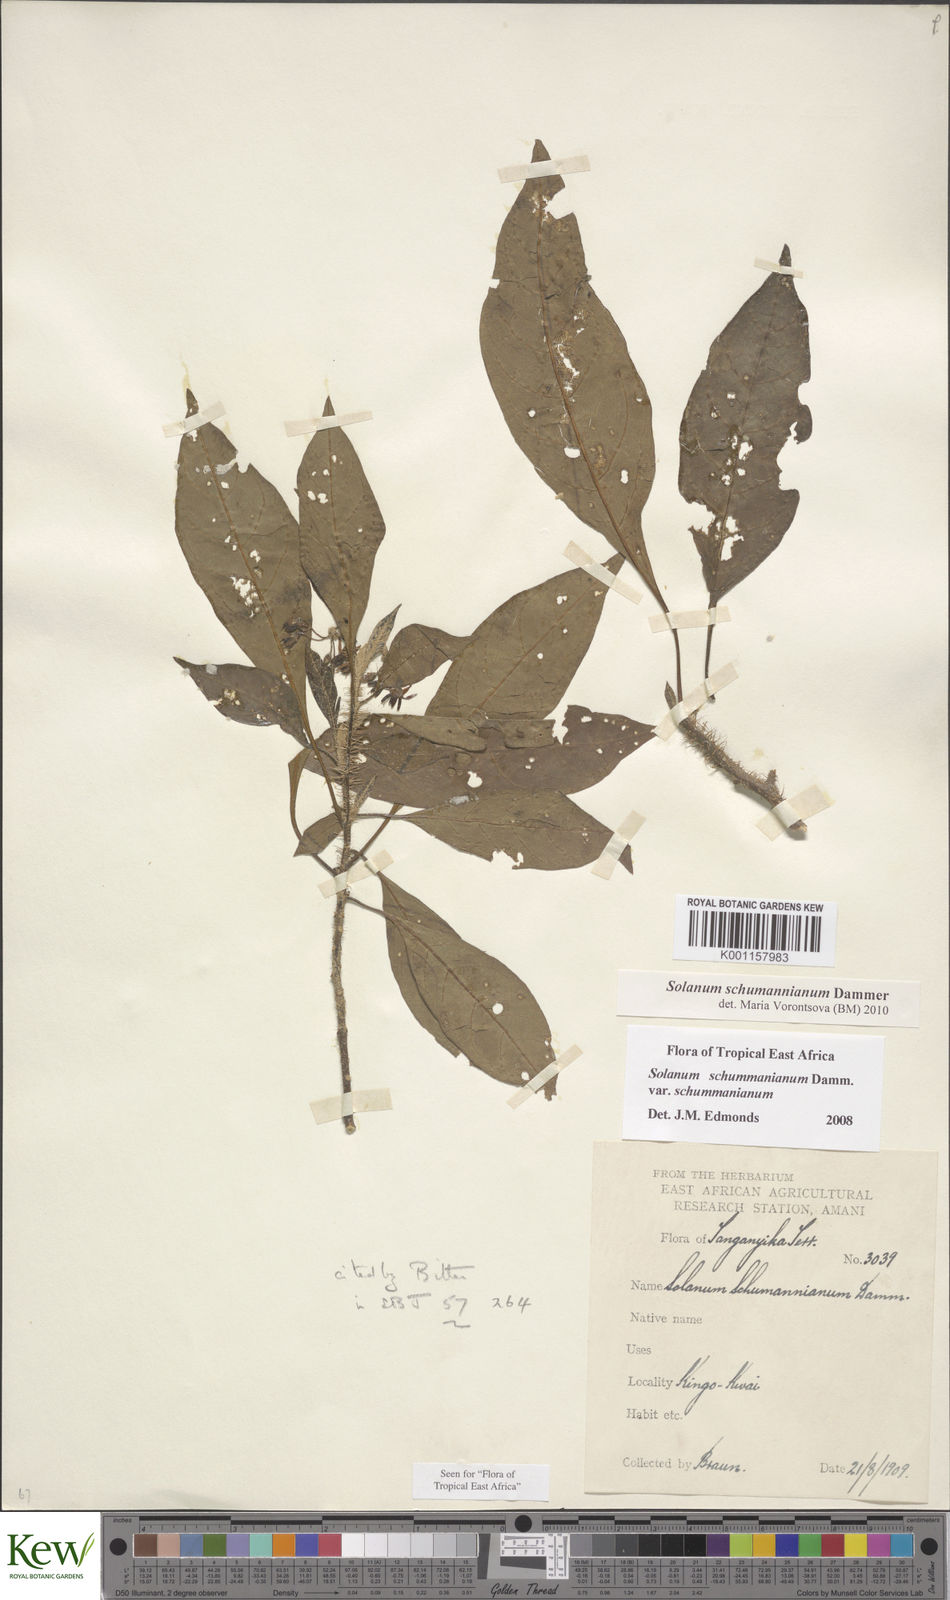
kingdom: Plantae
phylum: Tracheophyta
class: Magnoliopsida
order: Solanales
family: Solanaceae
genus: Solanum
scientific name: Solanum schumannianum
